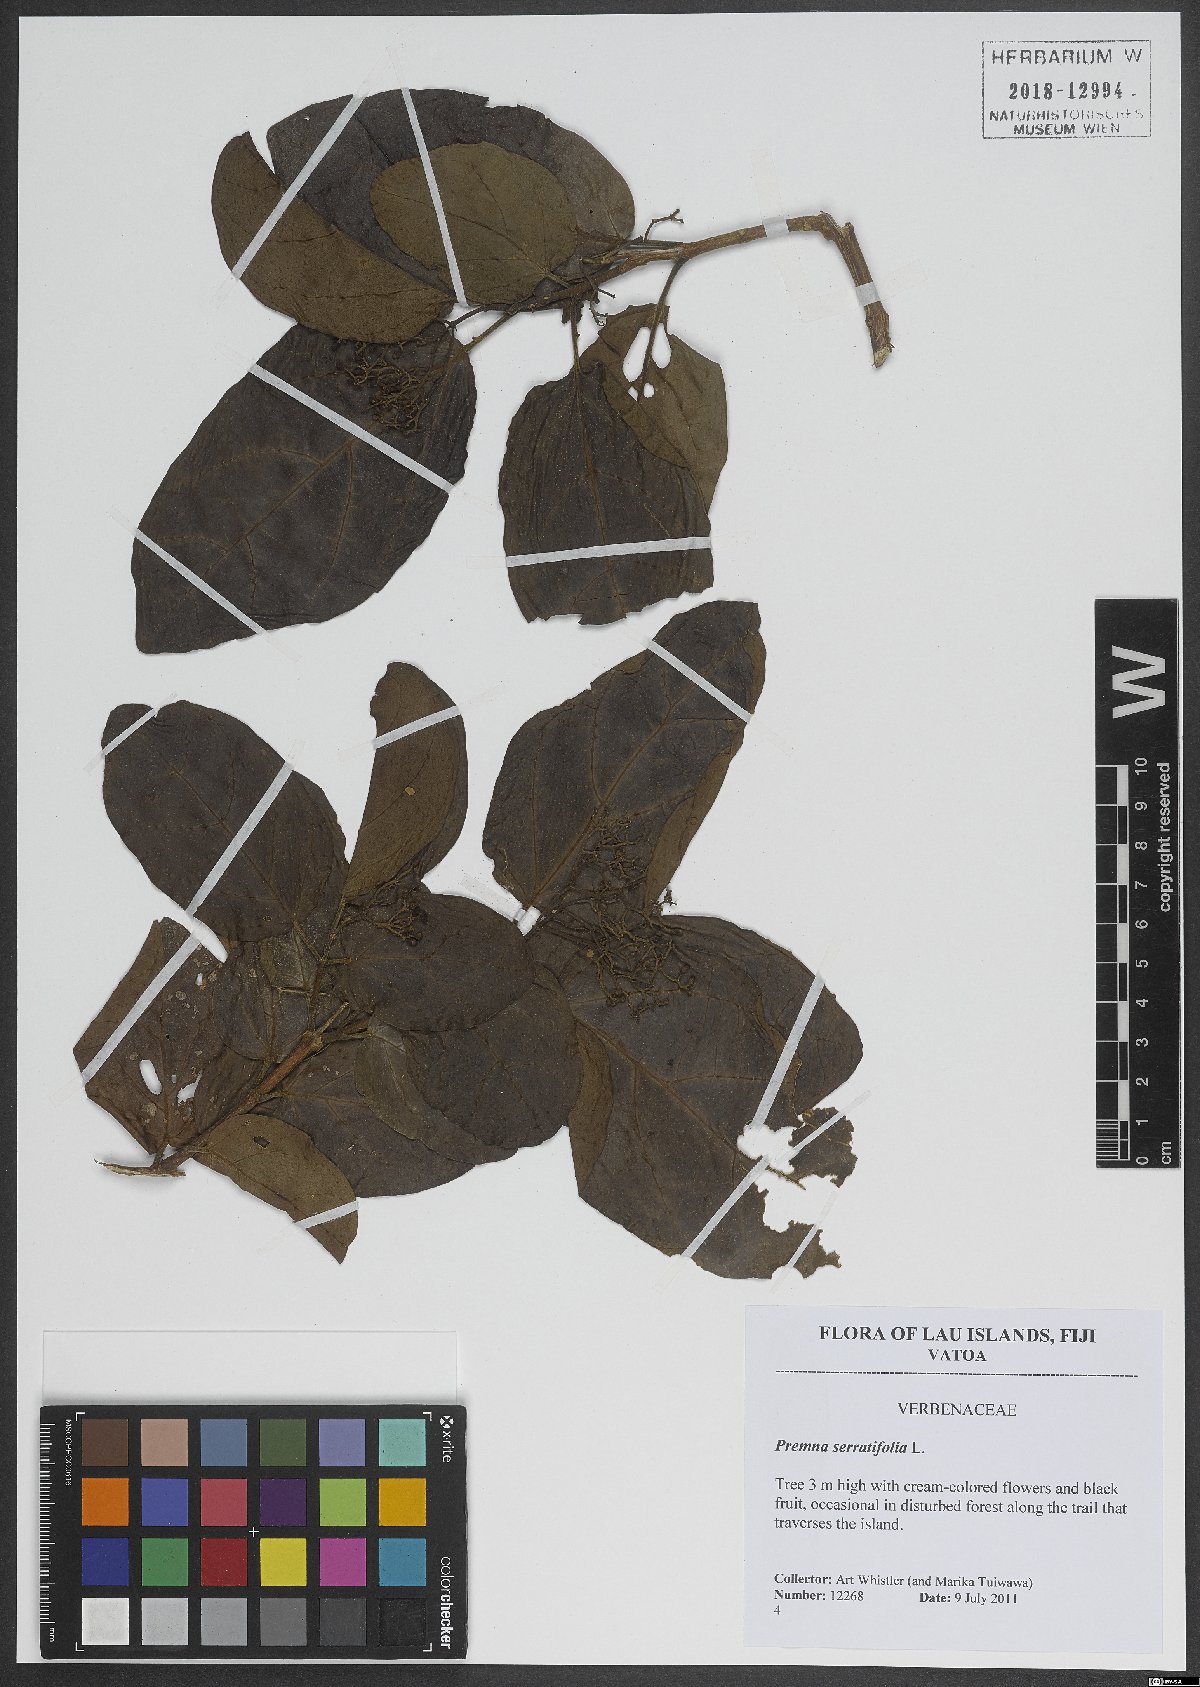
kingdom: Plantae
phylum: Tracheophyta
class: Magnoliopsida
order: Lamiales
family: Lamiaceae
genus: Premna
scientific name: Premna serratifolia
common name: Bastard guelder
